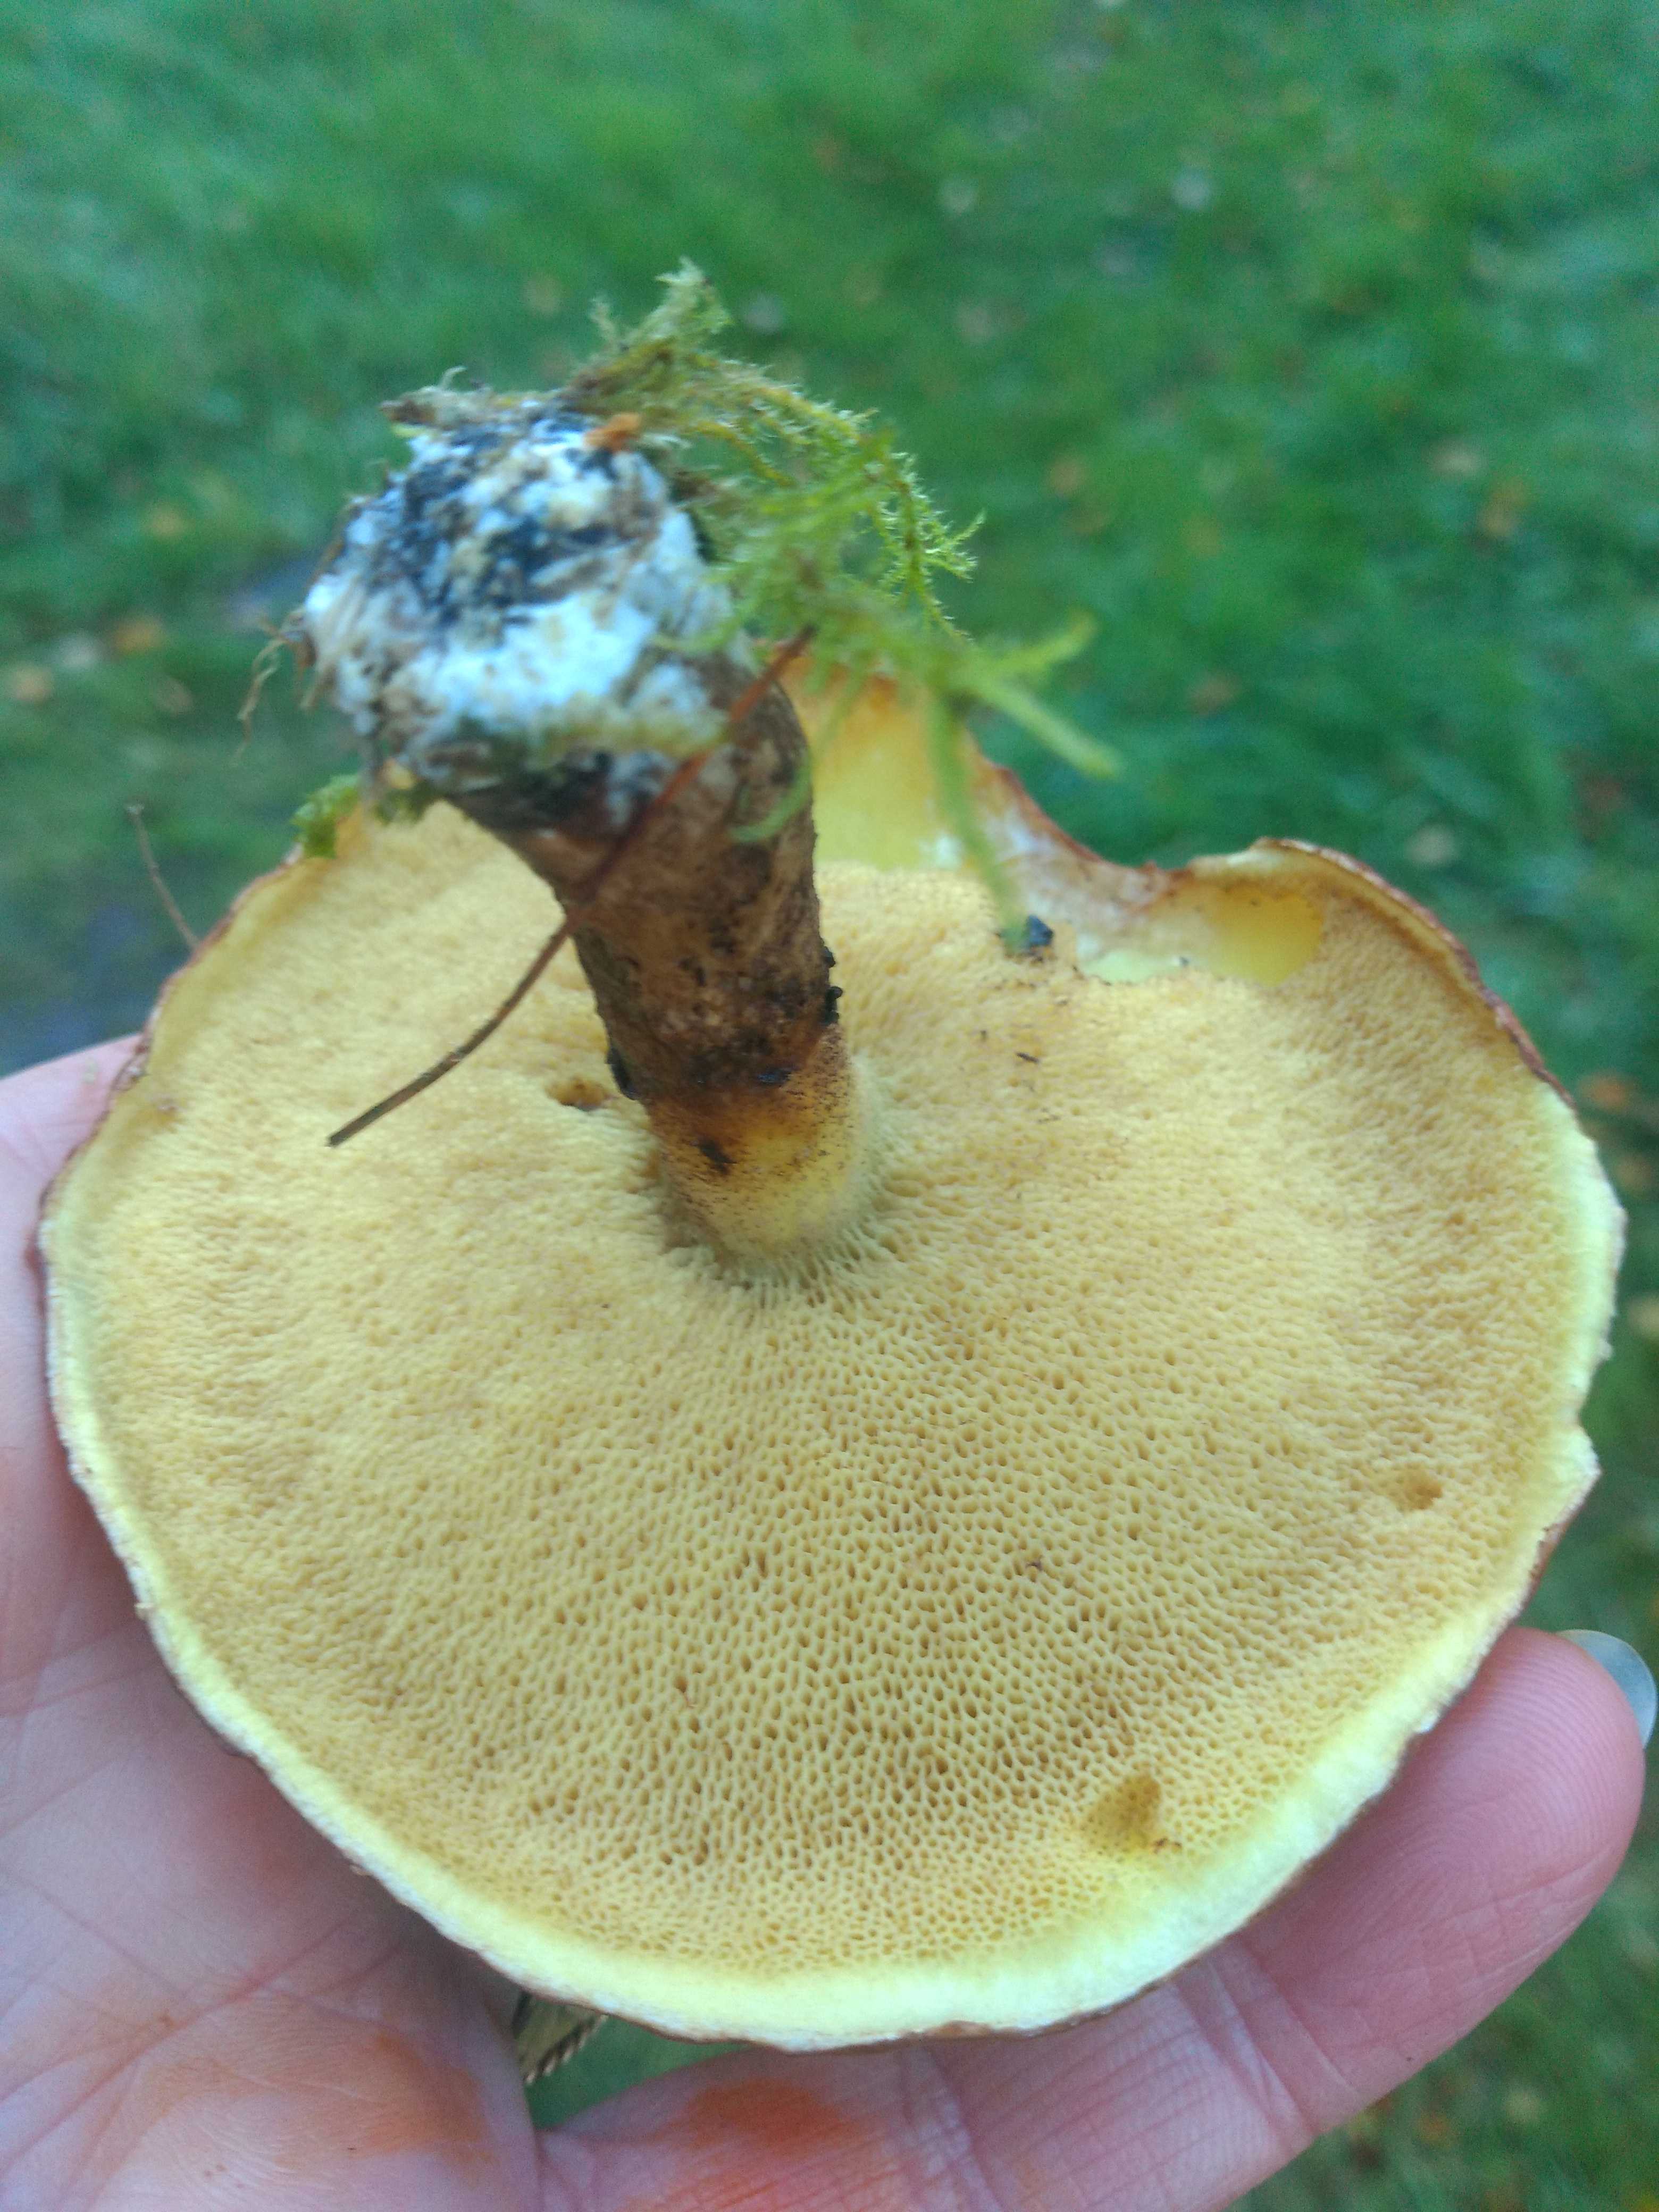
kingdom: Fungi
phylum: Basidiomycota
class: Agaricomycetes
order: Boletales
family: Suillaceae
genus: Suillus
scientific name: Suillus grevillei
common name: lærke-slimrørhat
